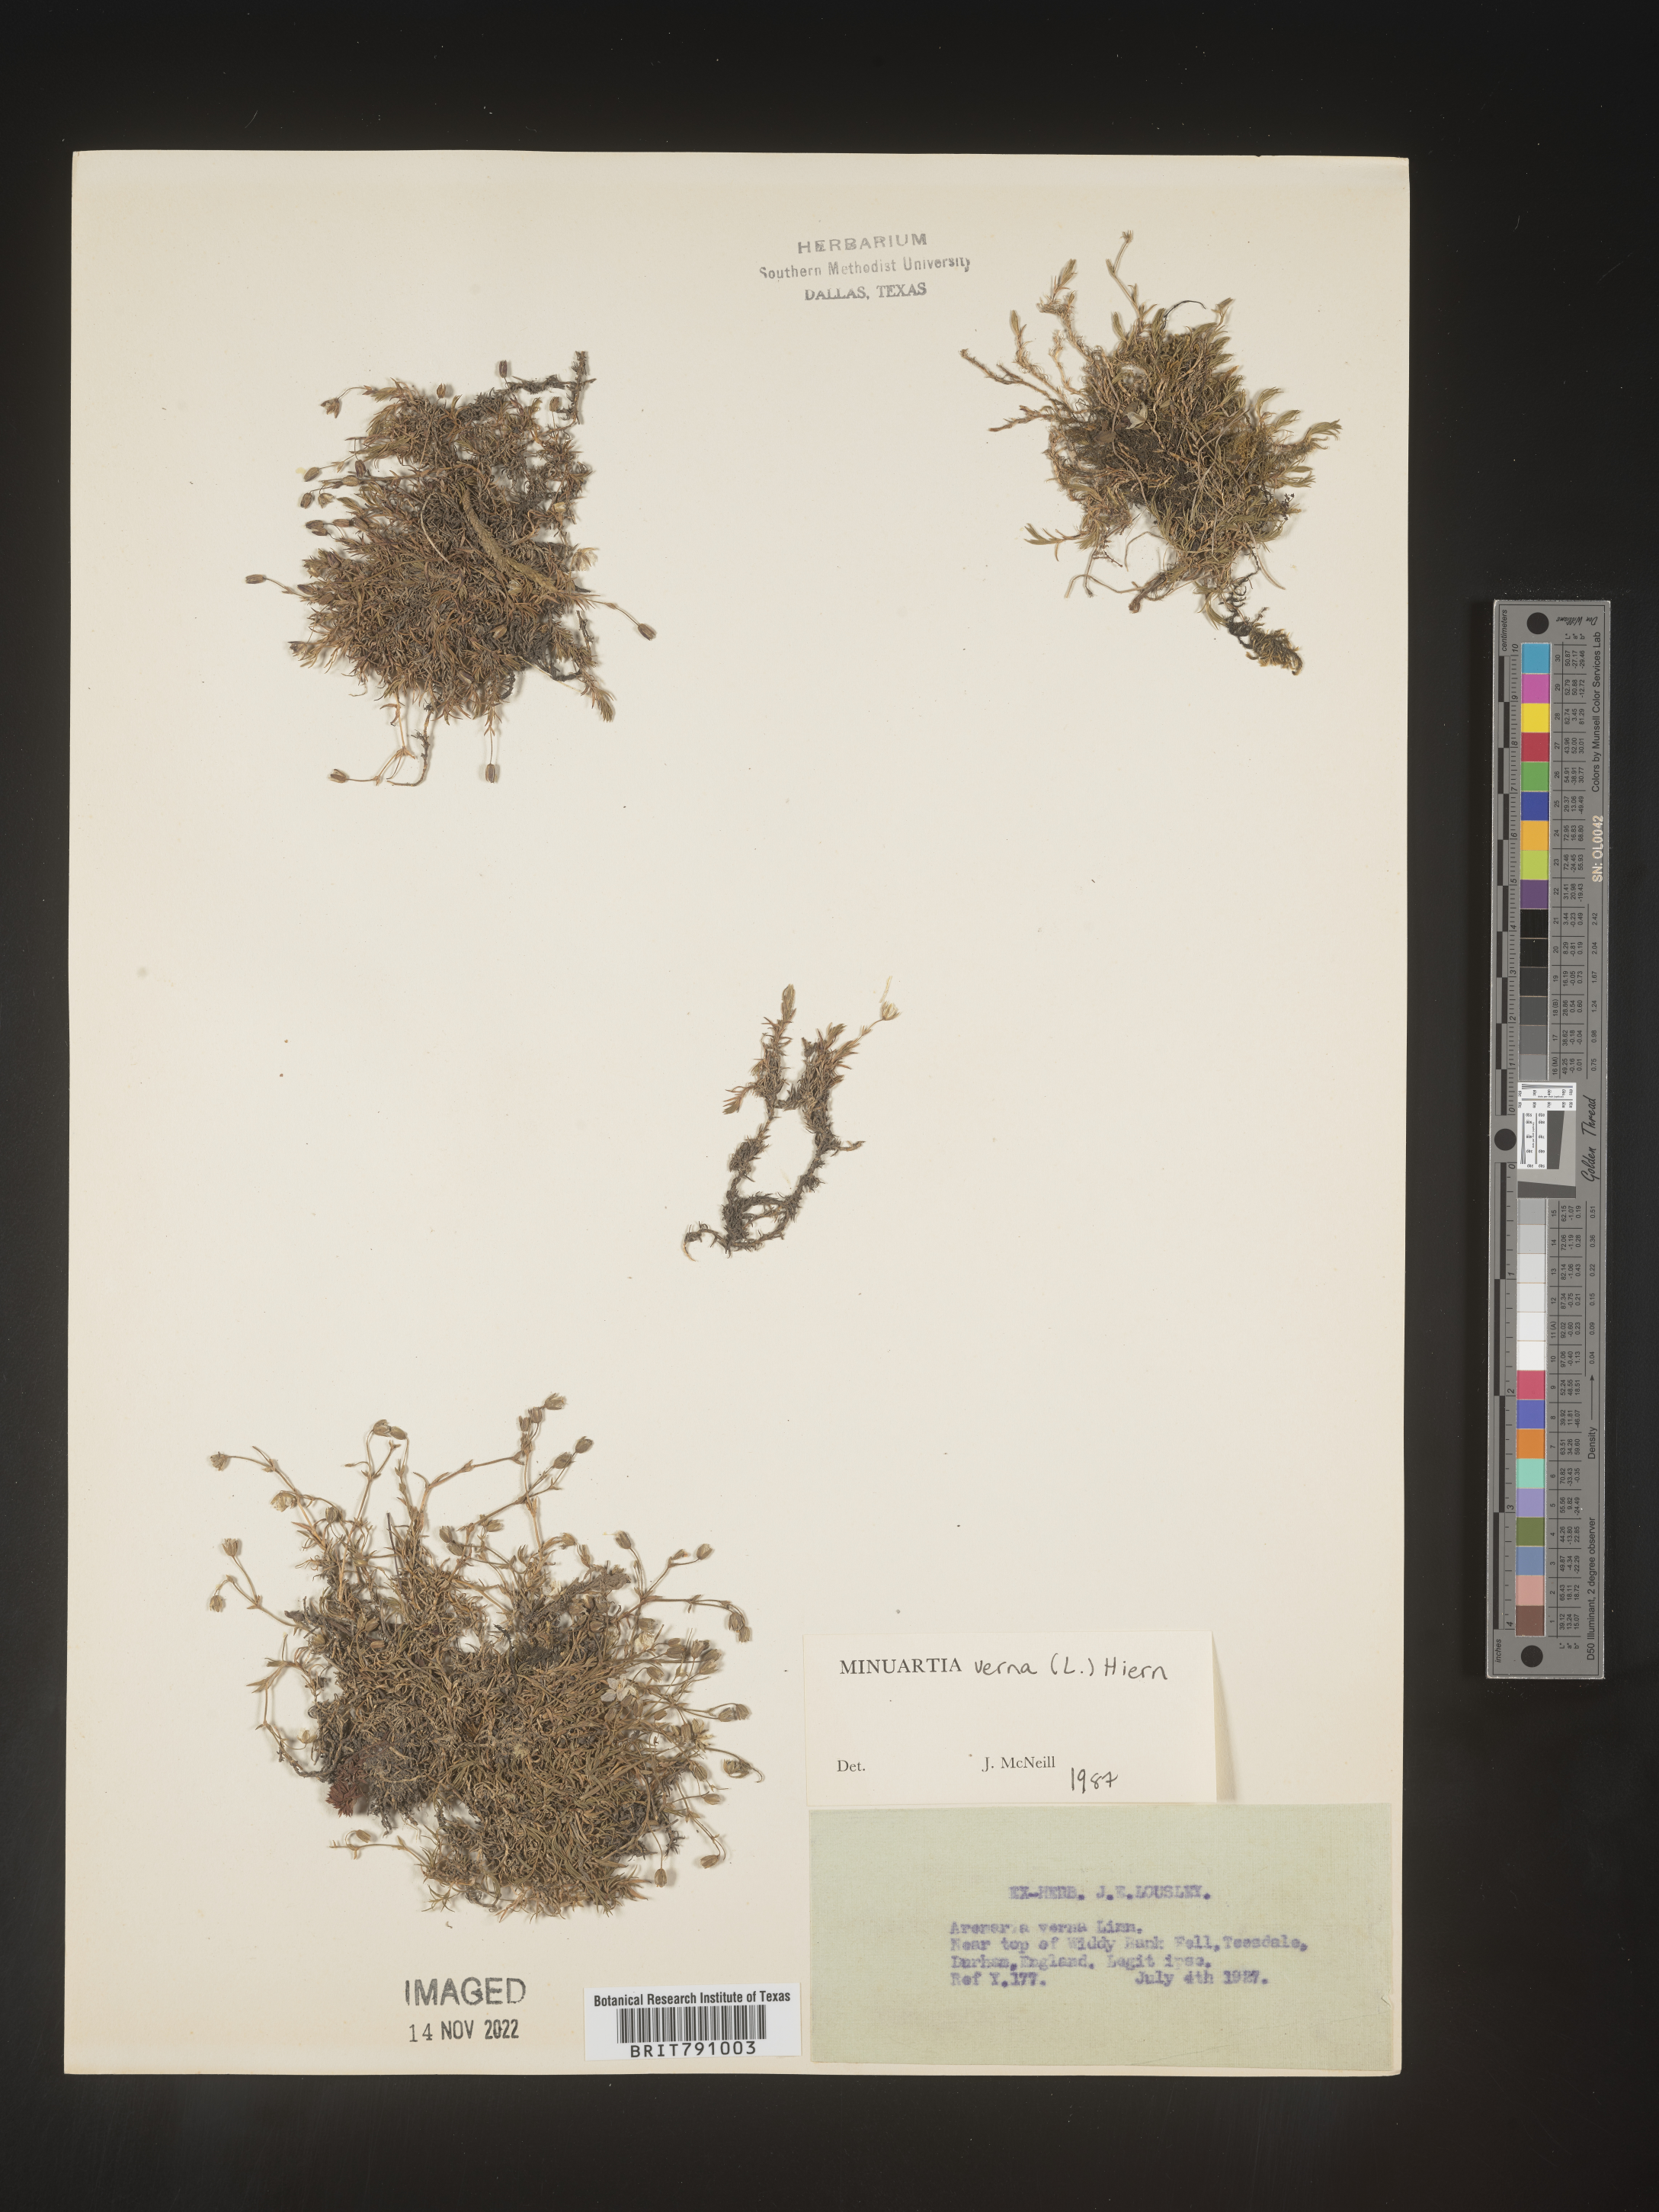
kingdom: Plantae
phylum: Tracheophyta
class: Magnoliopsida
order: Caryophyllales
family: Caryophyllaceae
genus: Minuartia
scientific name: Minuartia
